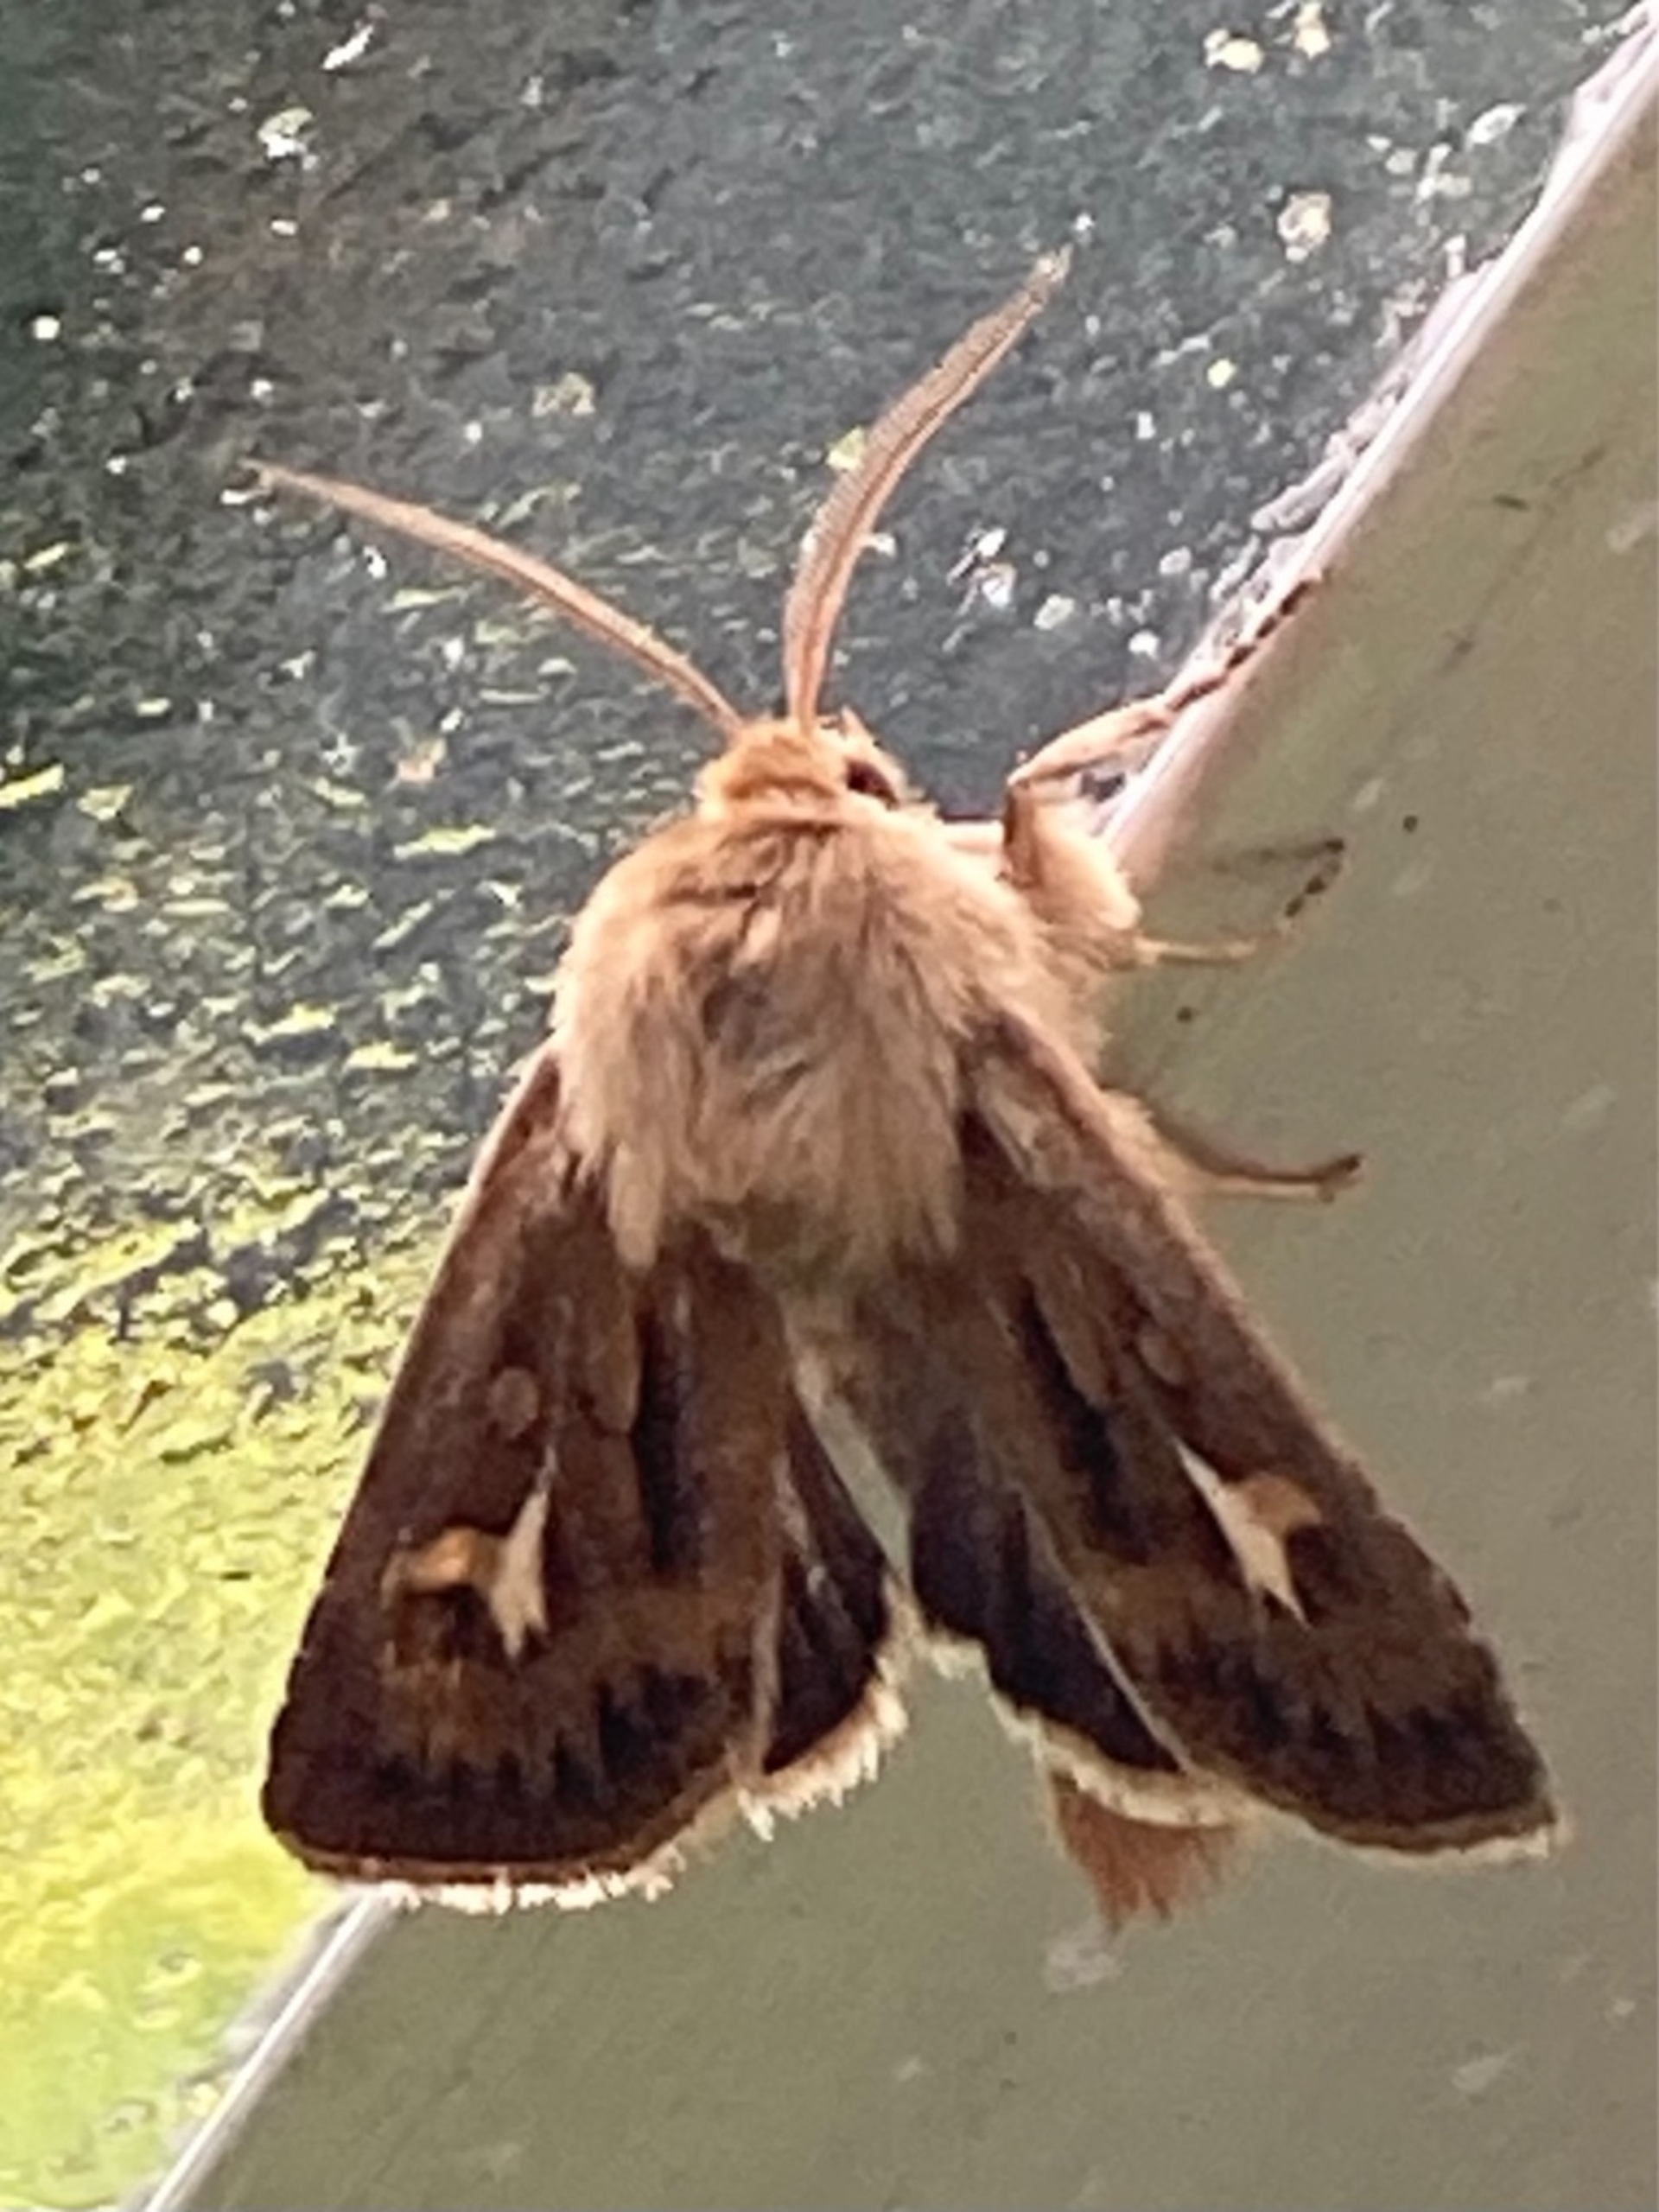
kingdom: Animalia
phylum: Arthropoda
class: Insecta
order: Lepidoptera
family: Noctuidae
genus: Cerapteryx
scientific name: Cerapteryx graminis
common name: Mosebunkeugle
